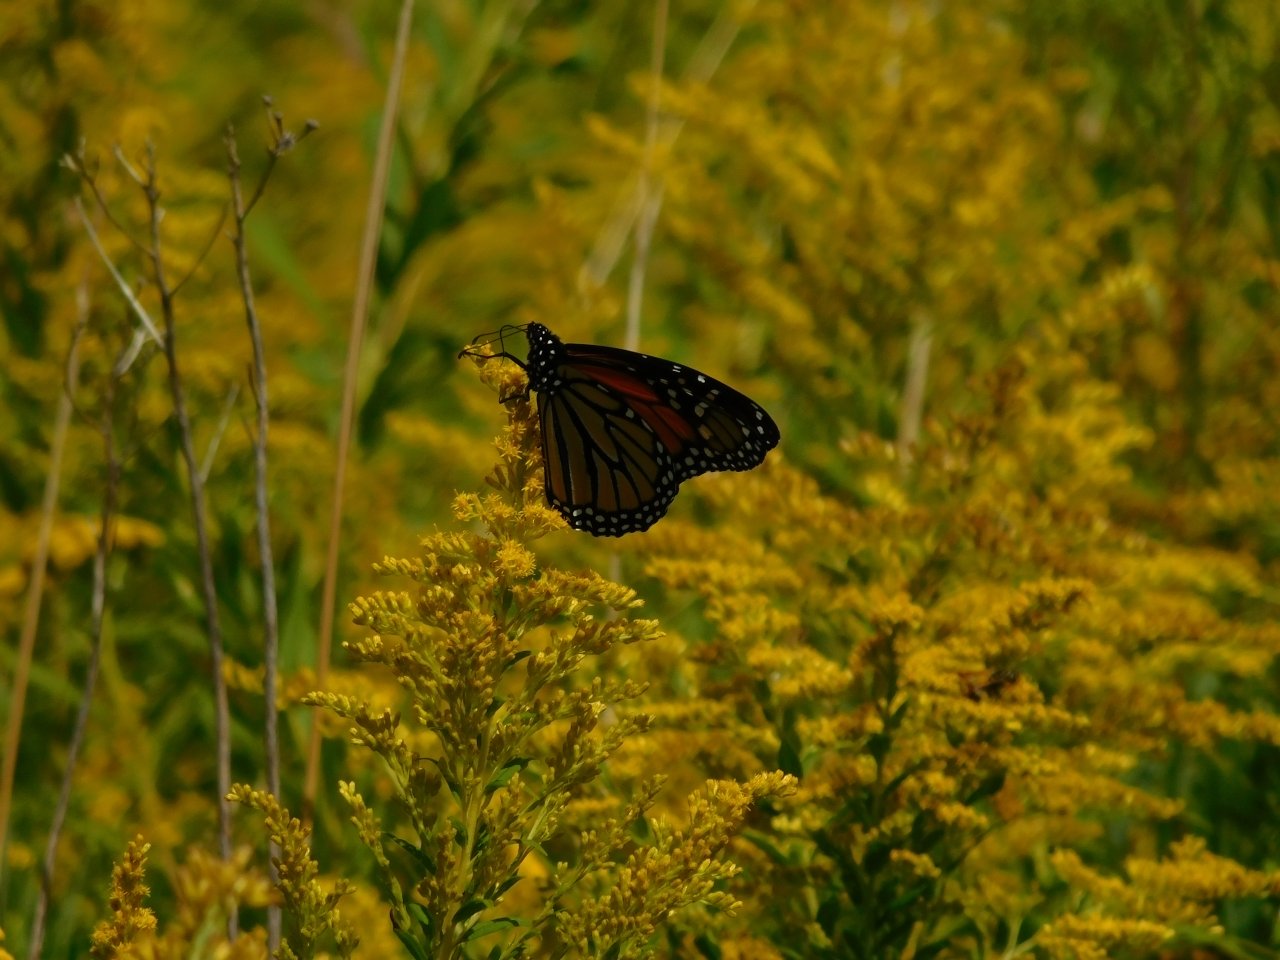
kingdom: Animalia
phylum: Arthropoda
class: Insecta
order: Lepidoptera
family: Nymphalidae
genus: Danaus
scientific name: Danaus plexippus
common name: Monarch
